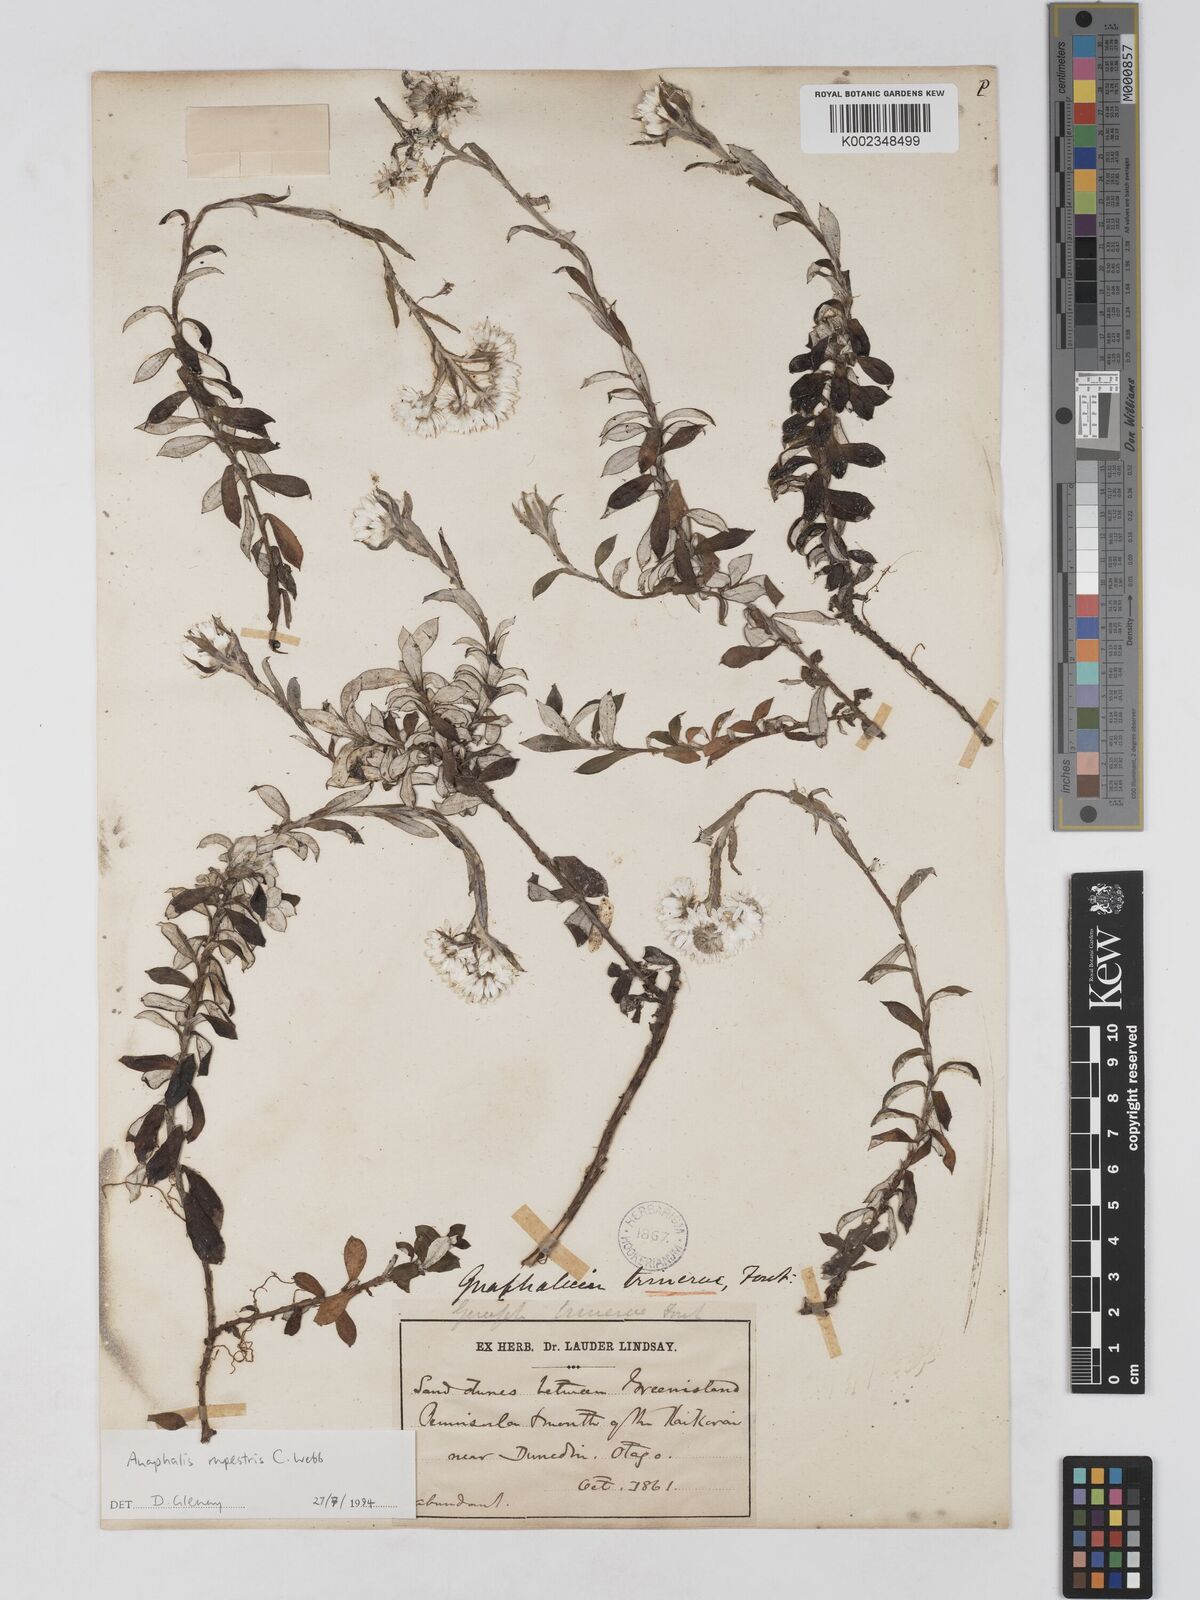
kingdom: Plantae
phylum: Tracheophyta
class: Magnoliopsida
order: Asterales
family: Asteraceae
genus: Anaphaloides
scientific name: Anaphaloides
